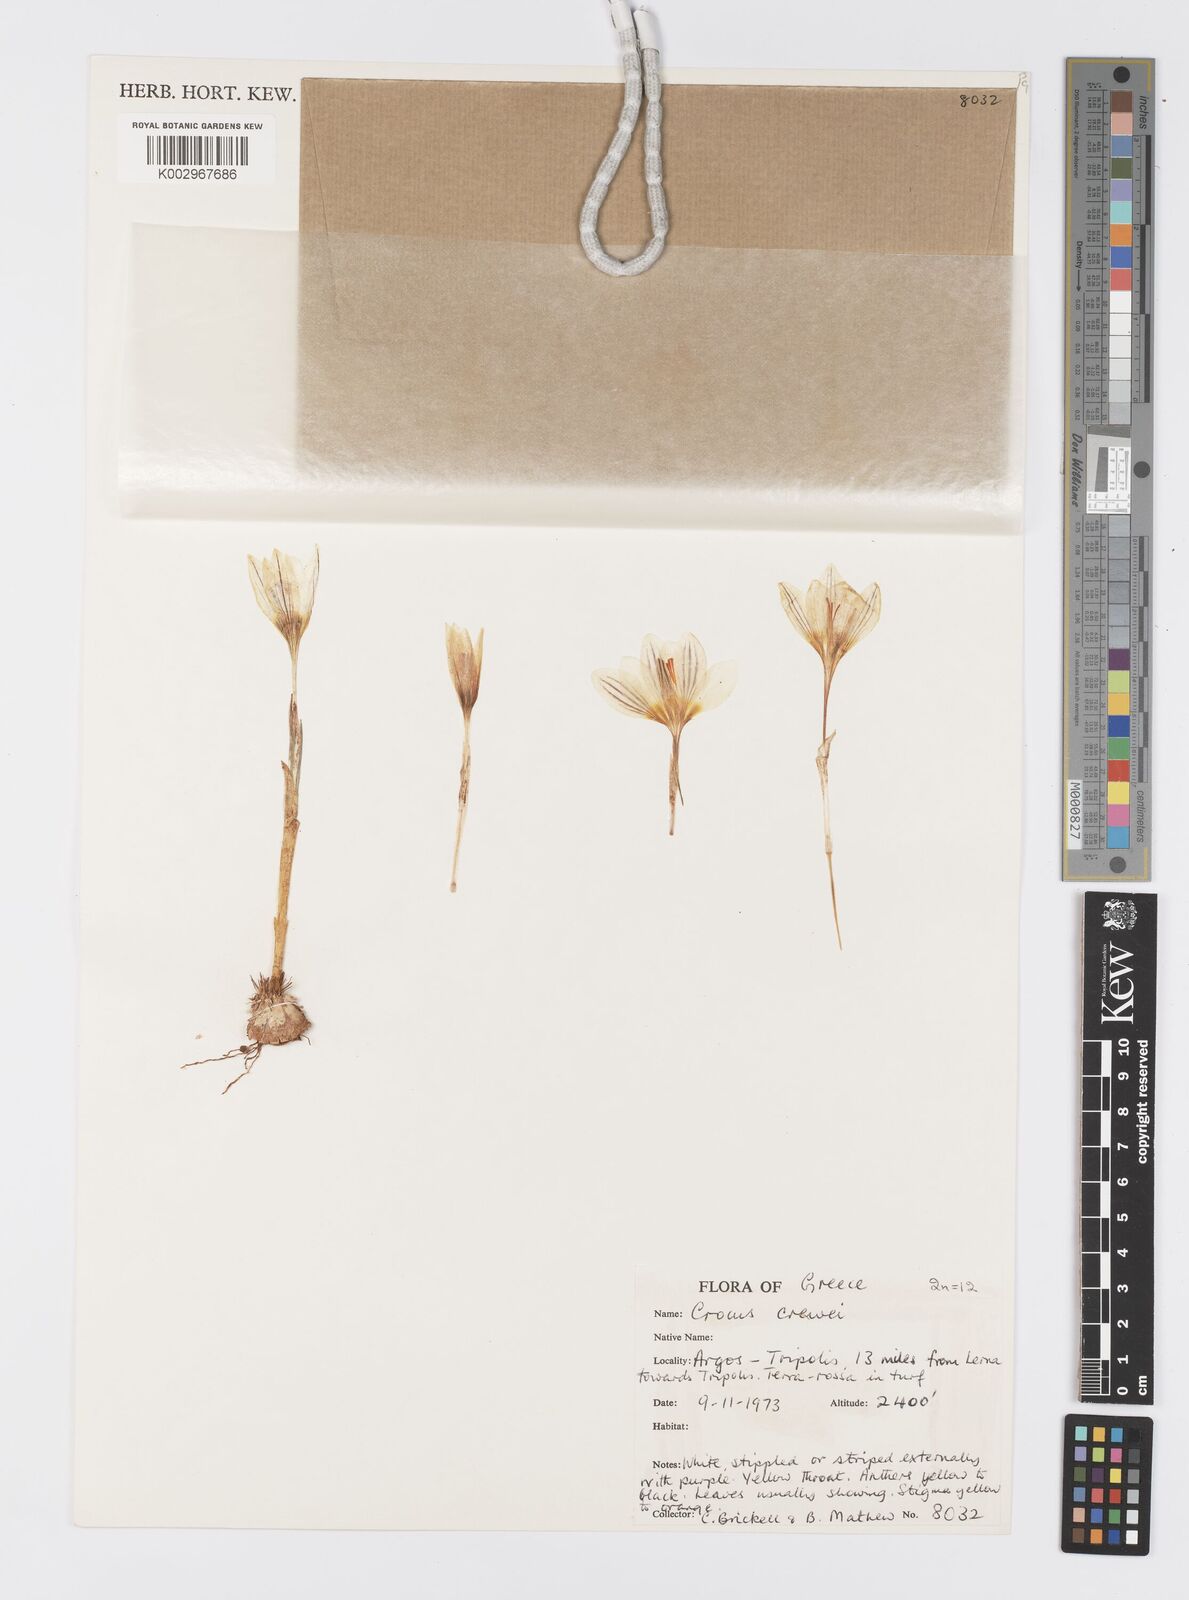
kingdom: Plantae
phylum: Tracheophyta
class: Liliopsida
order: Asparagales
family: Iridaceae
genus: Crocus
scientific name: Crocus melantherus
